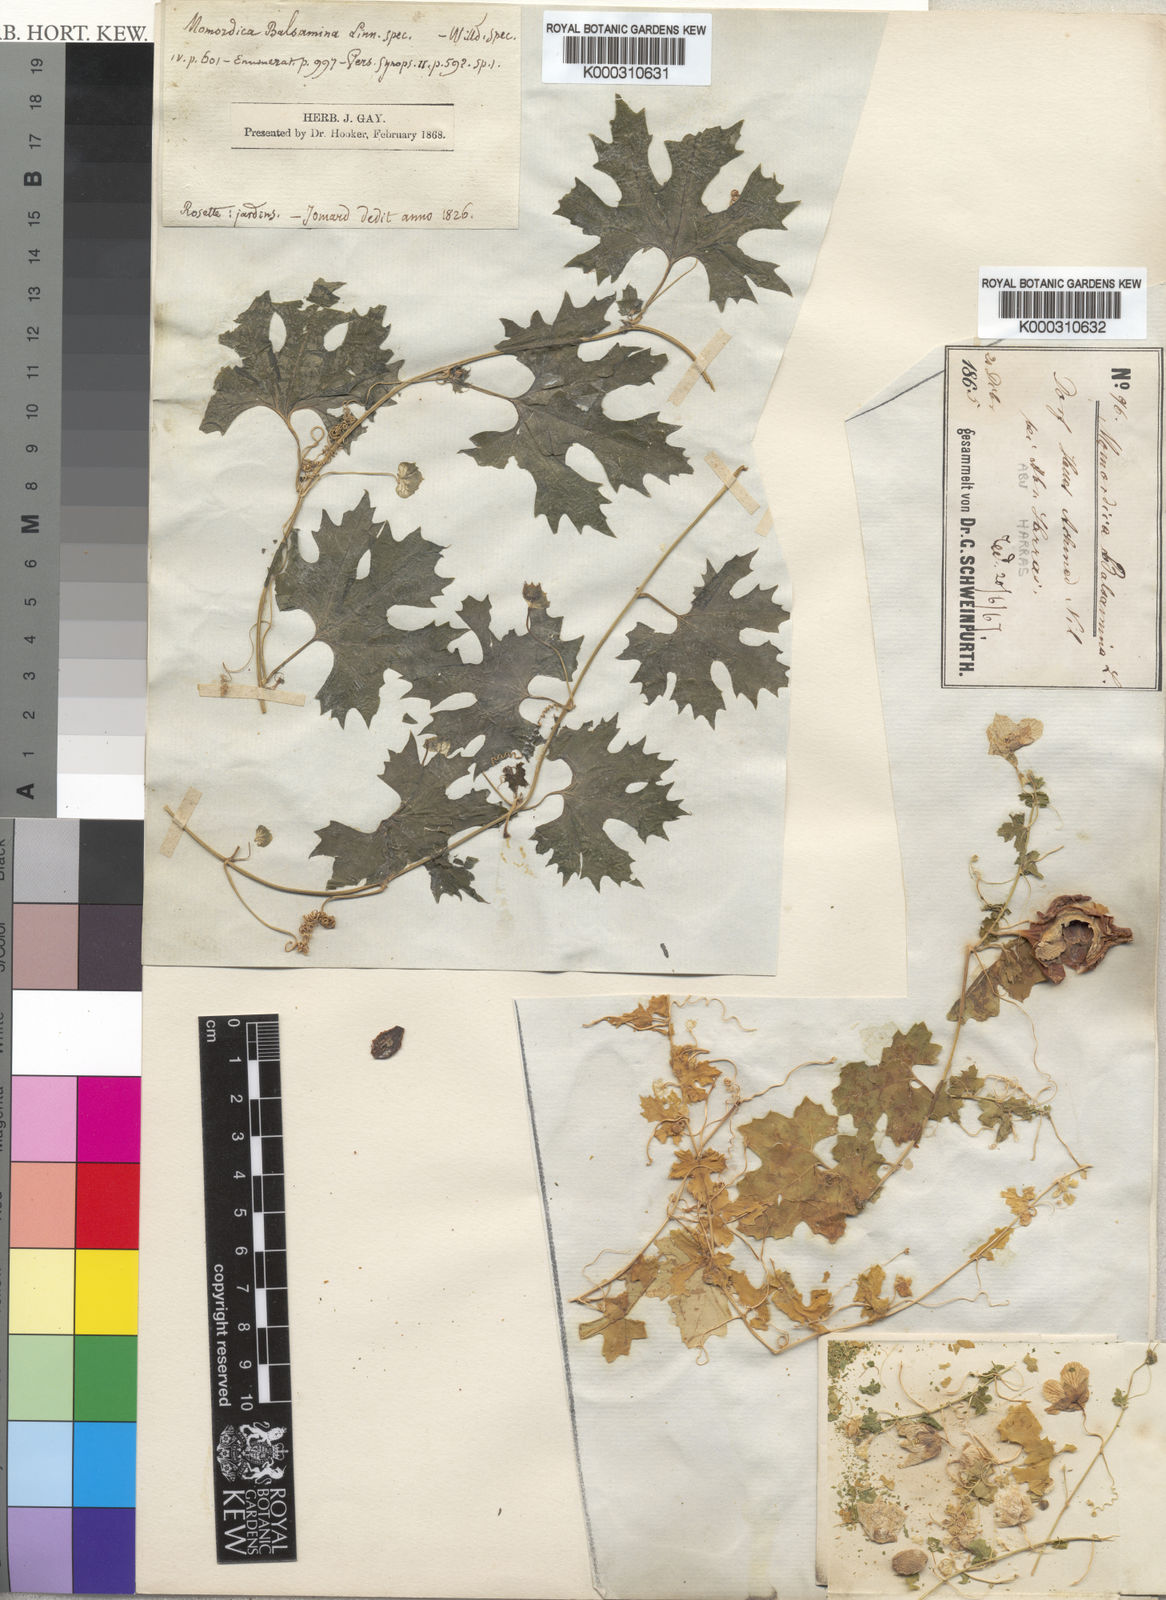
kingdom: Plantae
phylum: Tracheophyta
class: Magnoliopsida
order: Cucurbitales
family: Cucurbitaceae
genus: Momordica
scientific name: Momordica balsamina
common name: Southern balsampear
